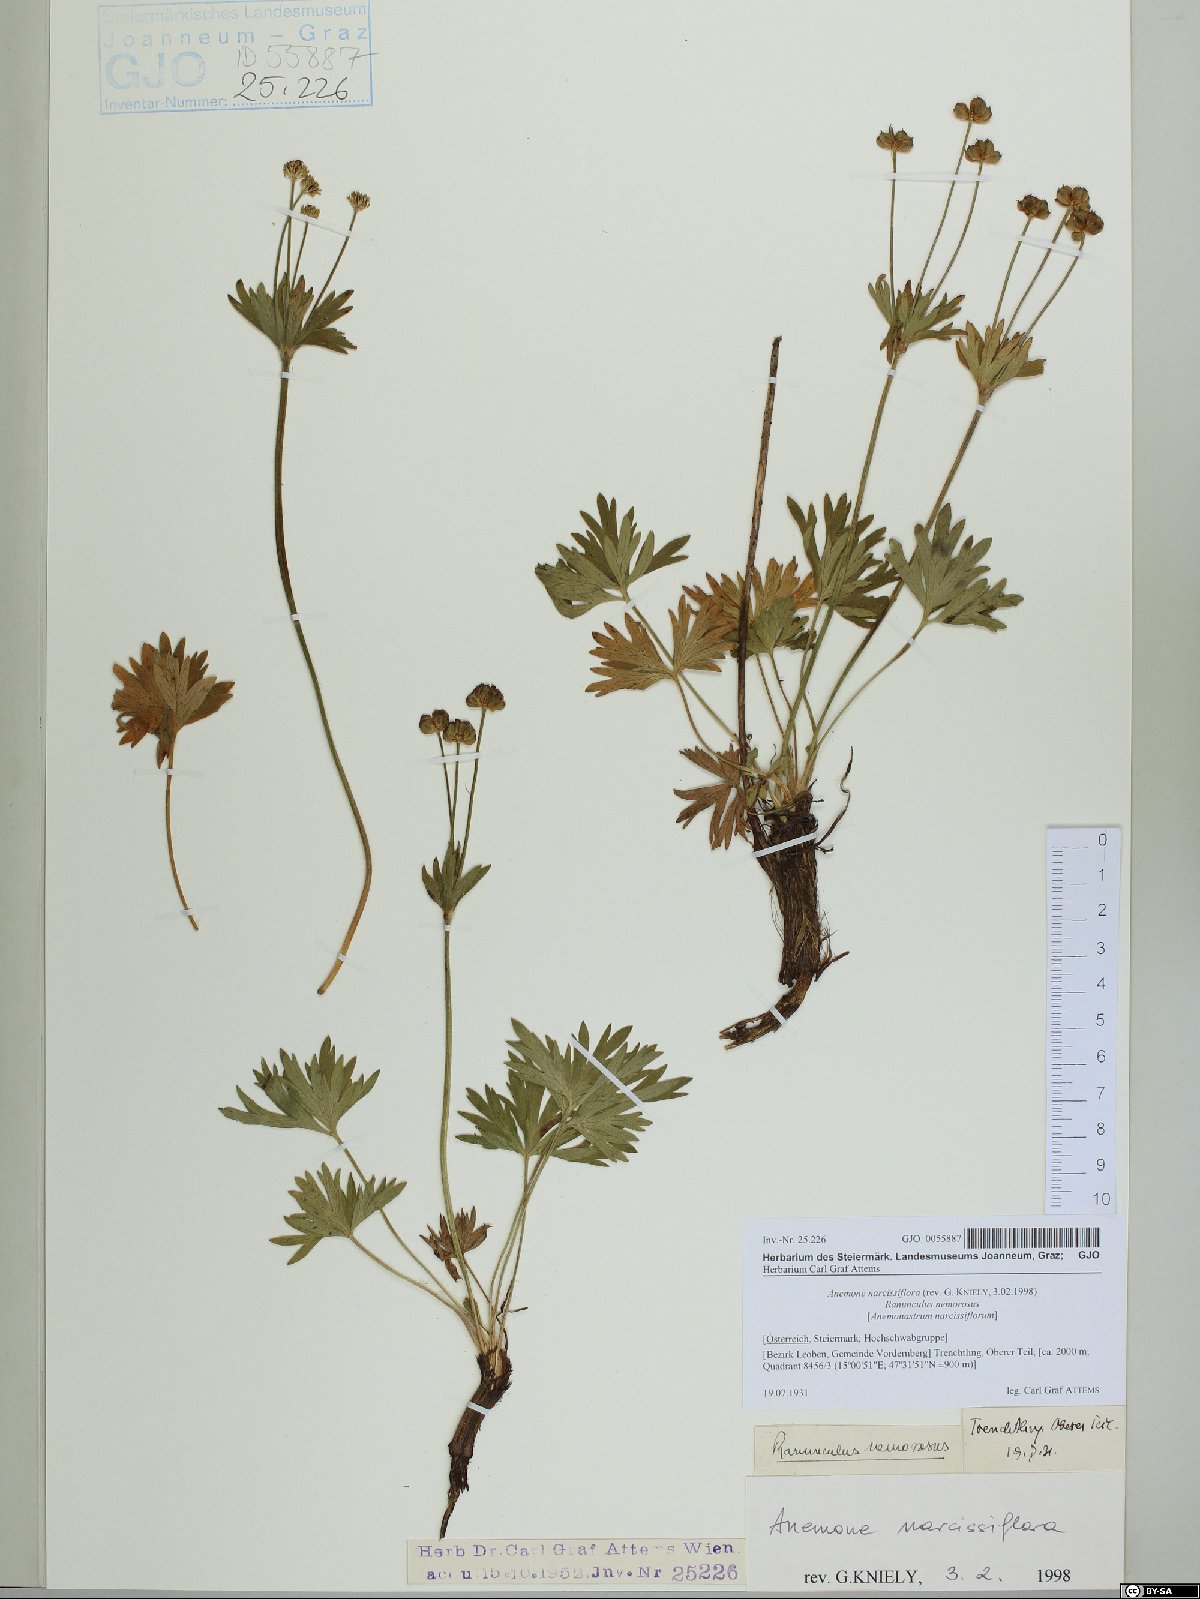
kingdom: Plantae
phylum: Tracheophyta
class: Magnoliopsida
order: Ranunculales
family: Ranunculaceae
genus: Anemonastrum
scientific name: Anemonastrum narcissiflorum
